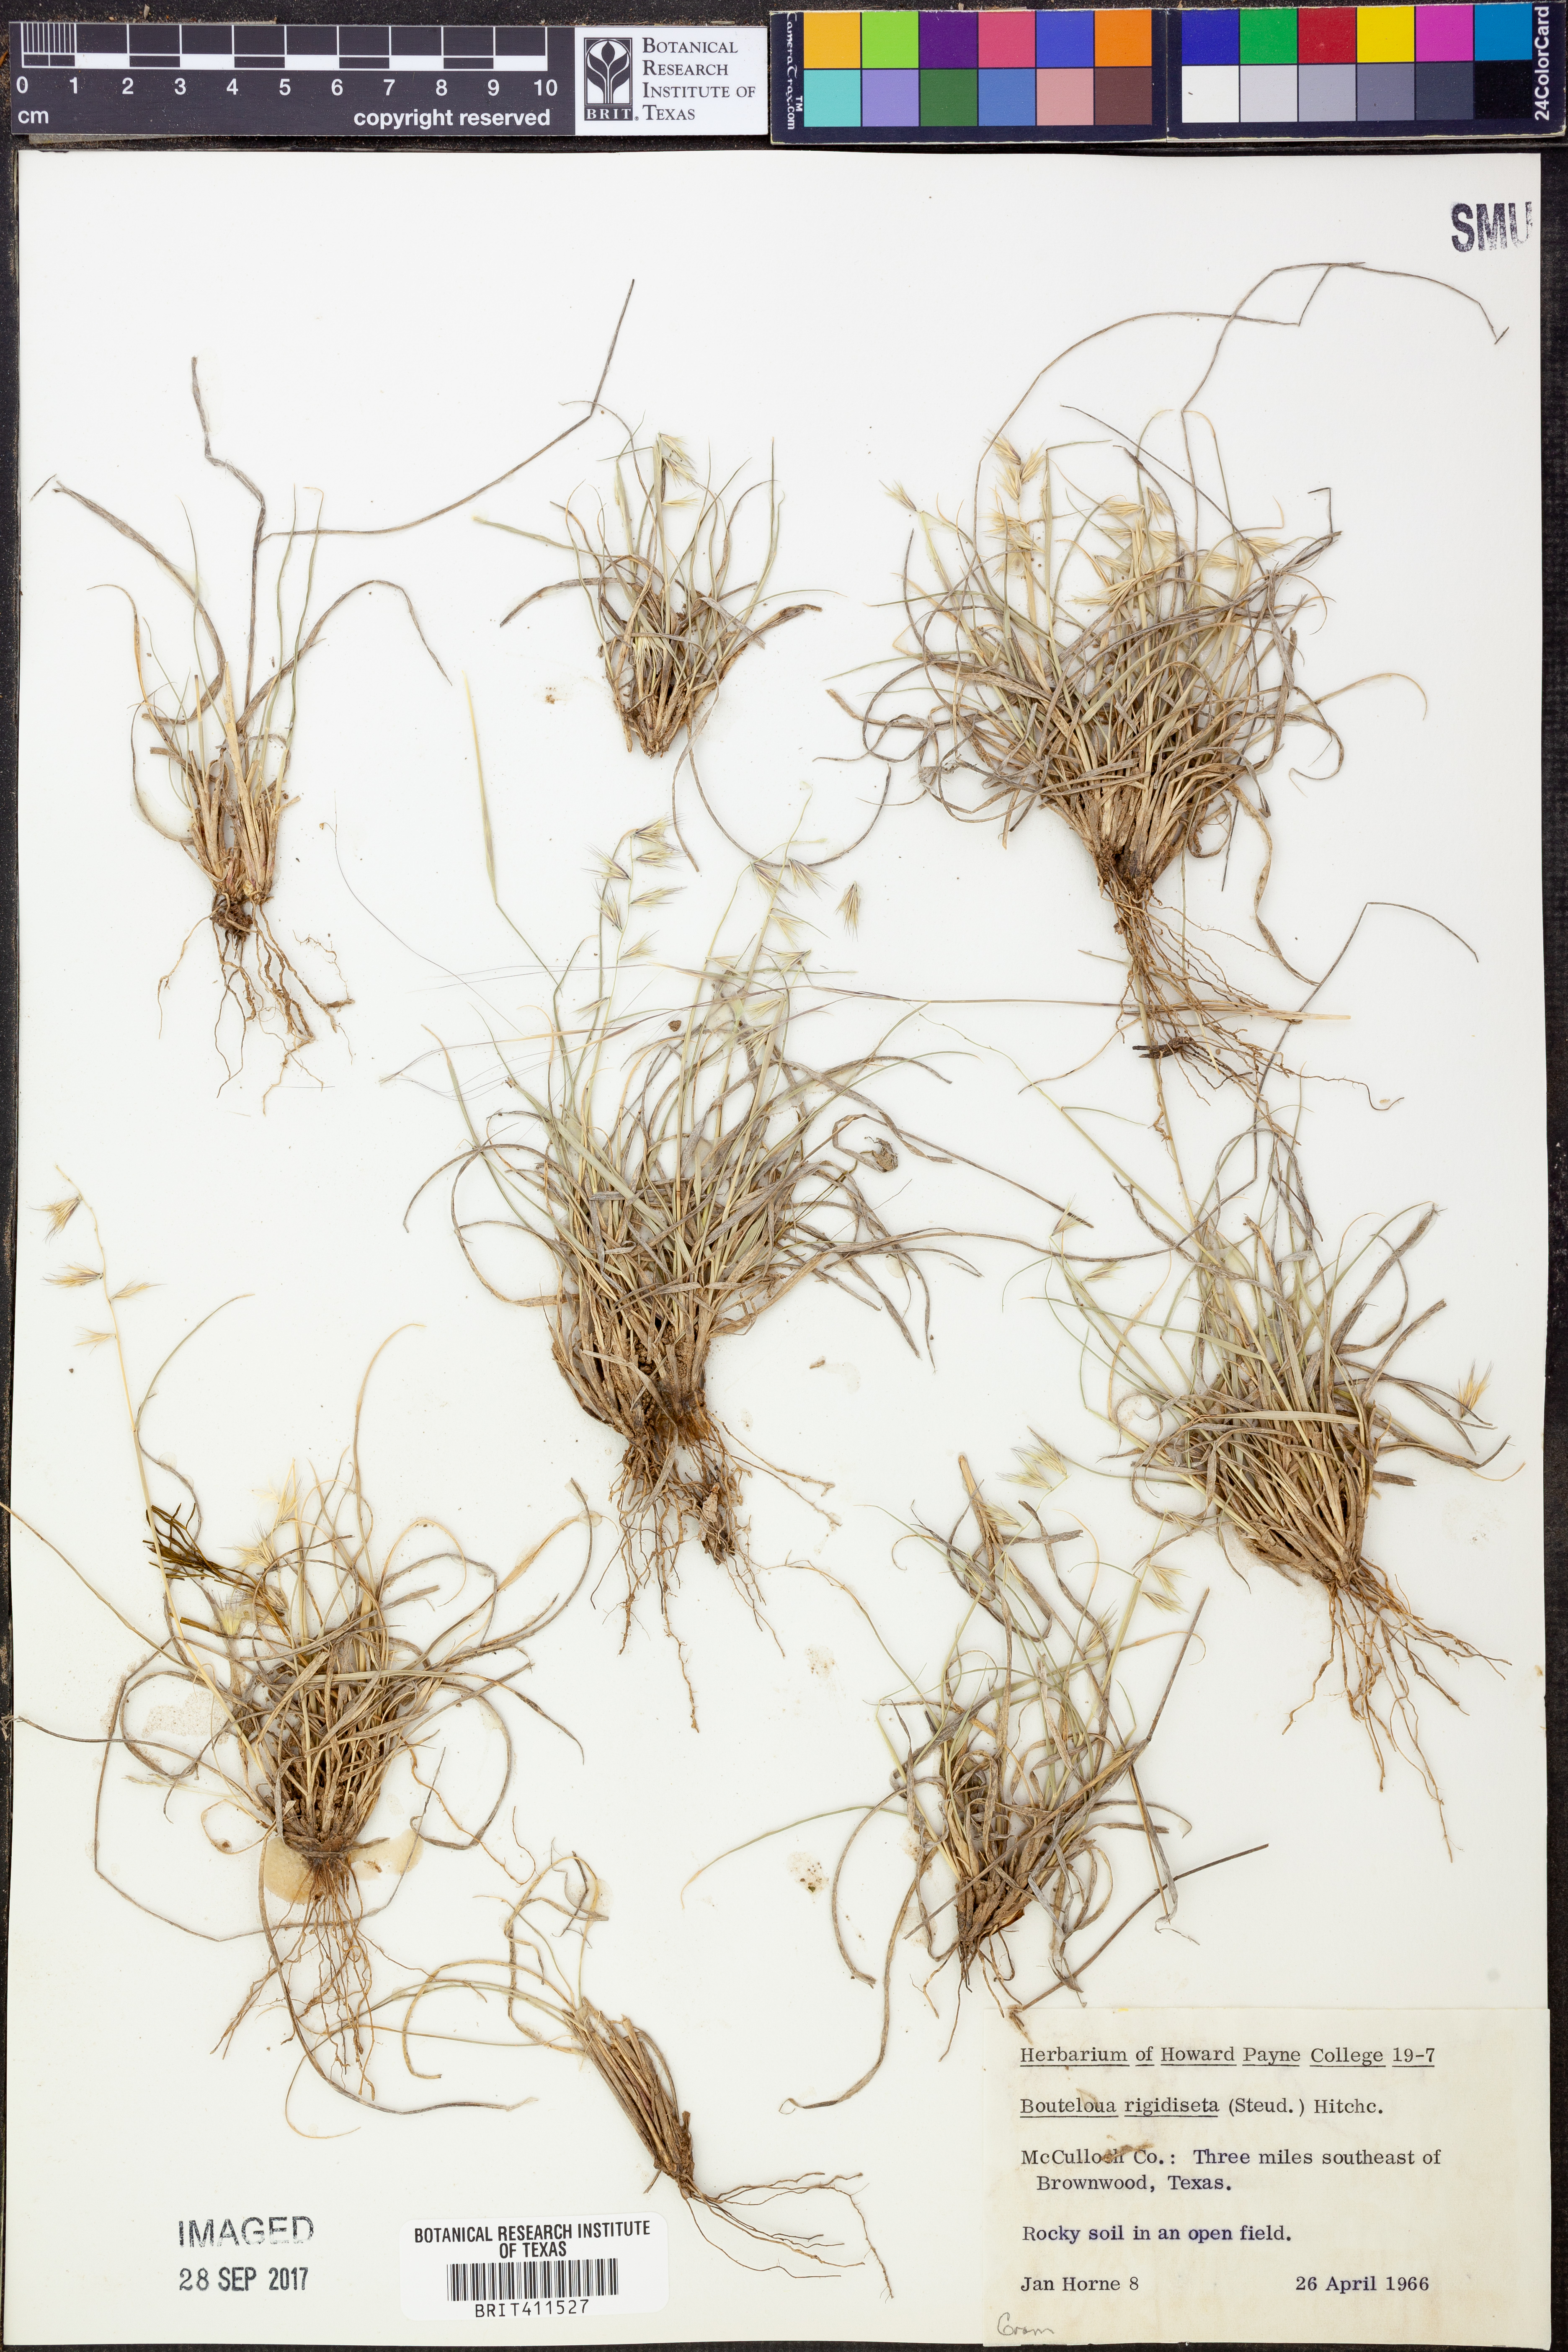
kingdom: Plantae
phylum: Tracheophyta
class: Liliopsida
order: Poales
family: Poaceae
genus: Bouteloua
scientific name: Bouteloua rigidiseta
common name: Texas grama
